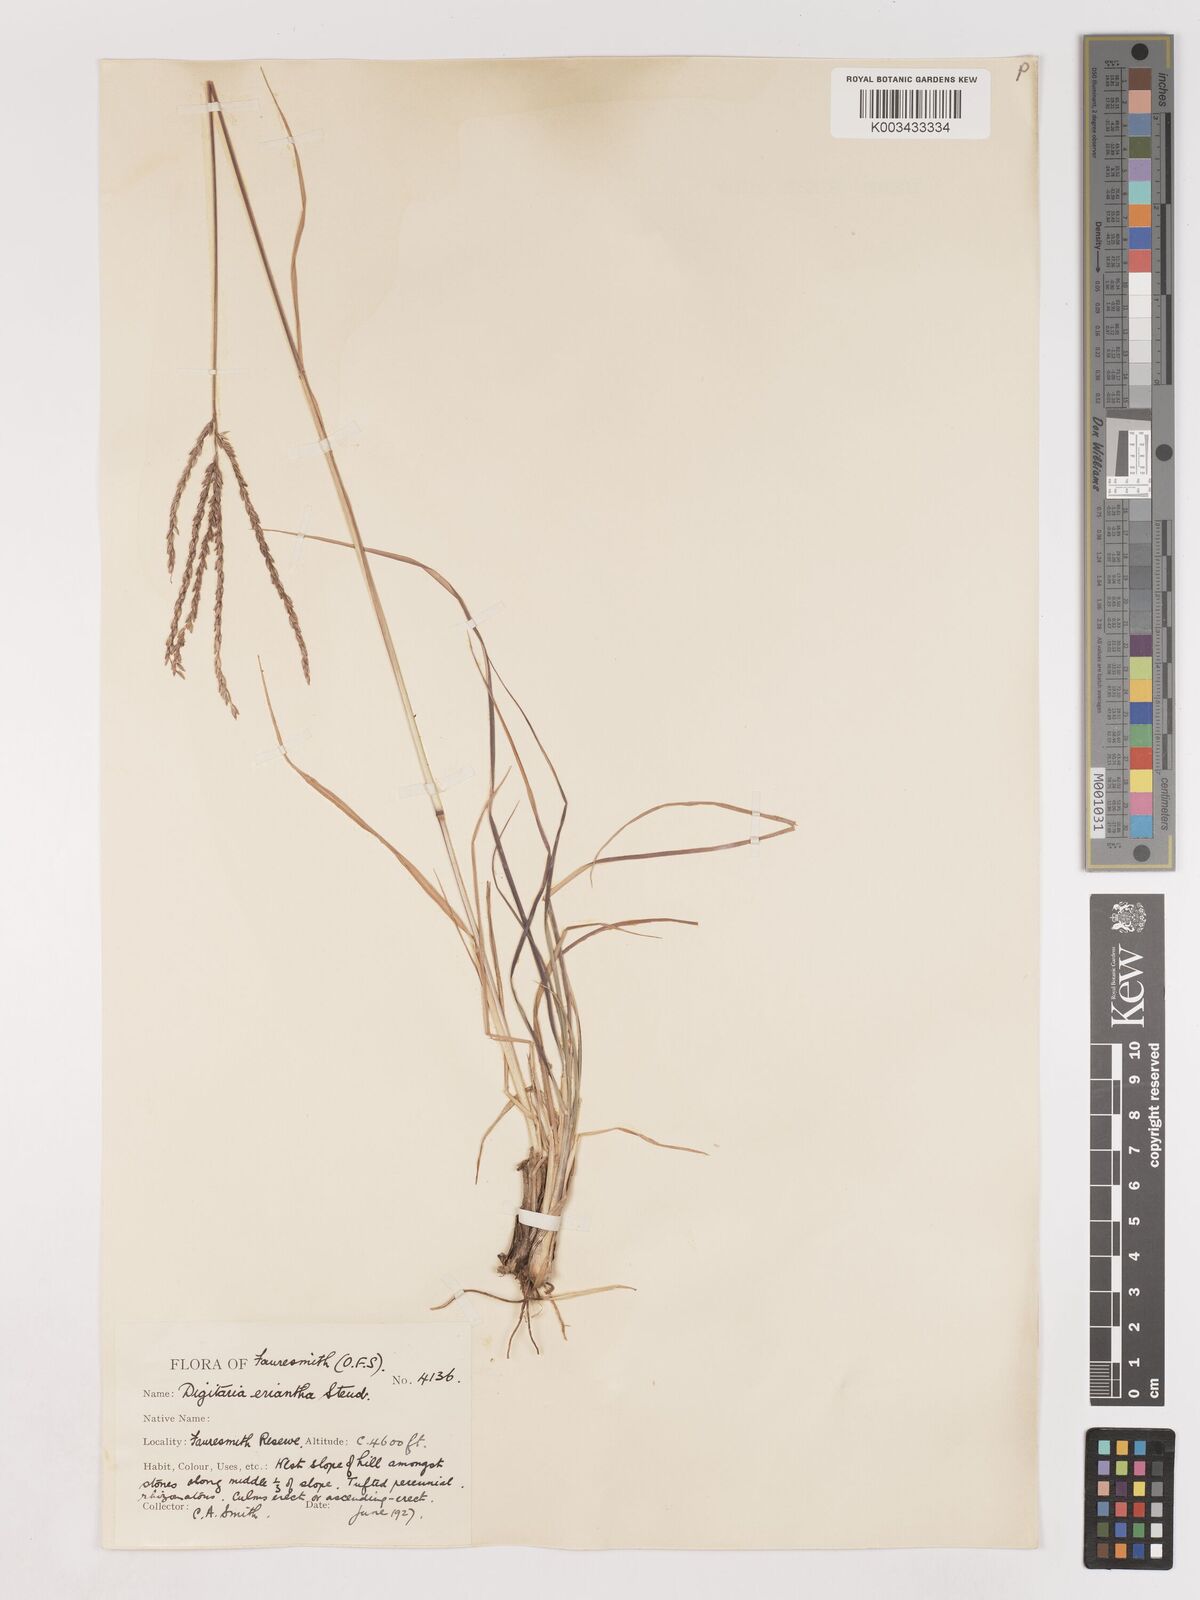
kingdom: Plantae
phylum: Tracheophyta
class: Liliopsida
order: Poales
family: Poaceae
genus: Digitaria
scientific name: Digitaria eriantha
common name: Digitgrass
